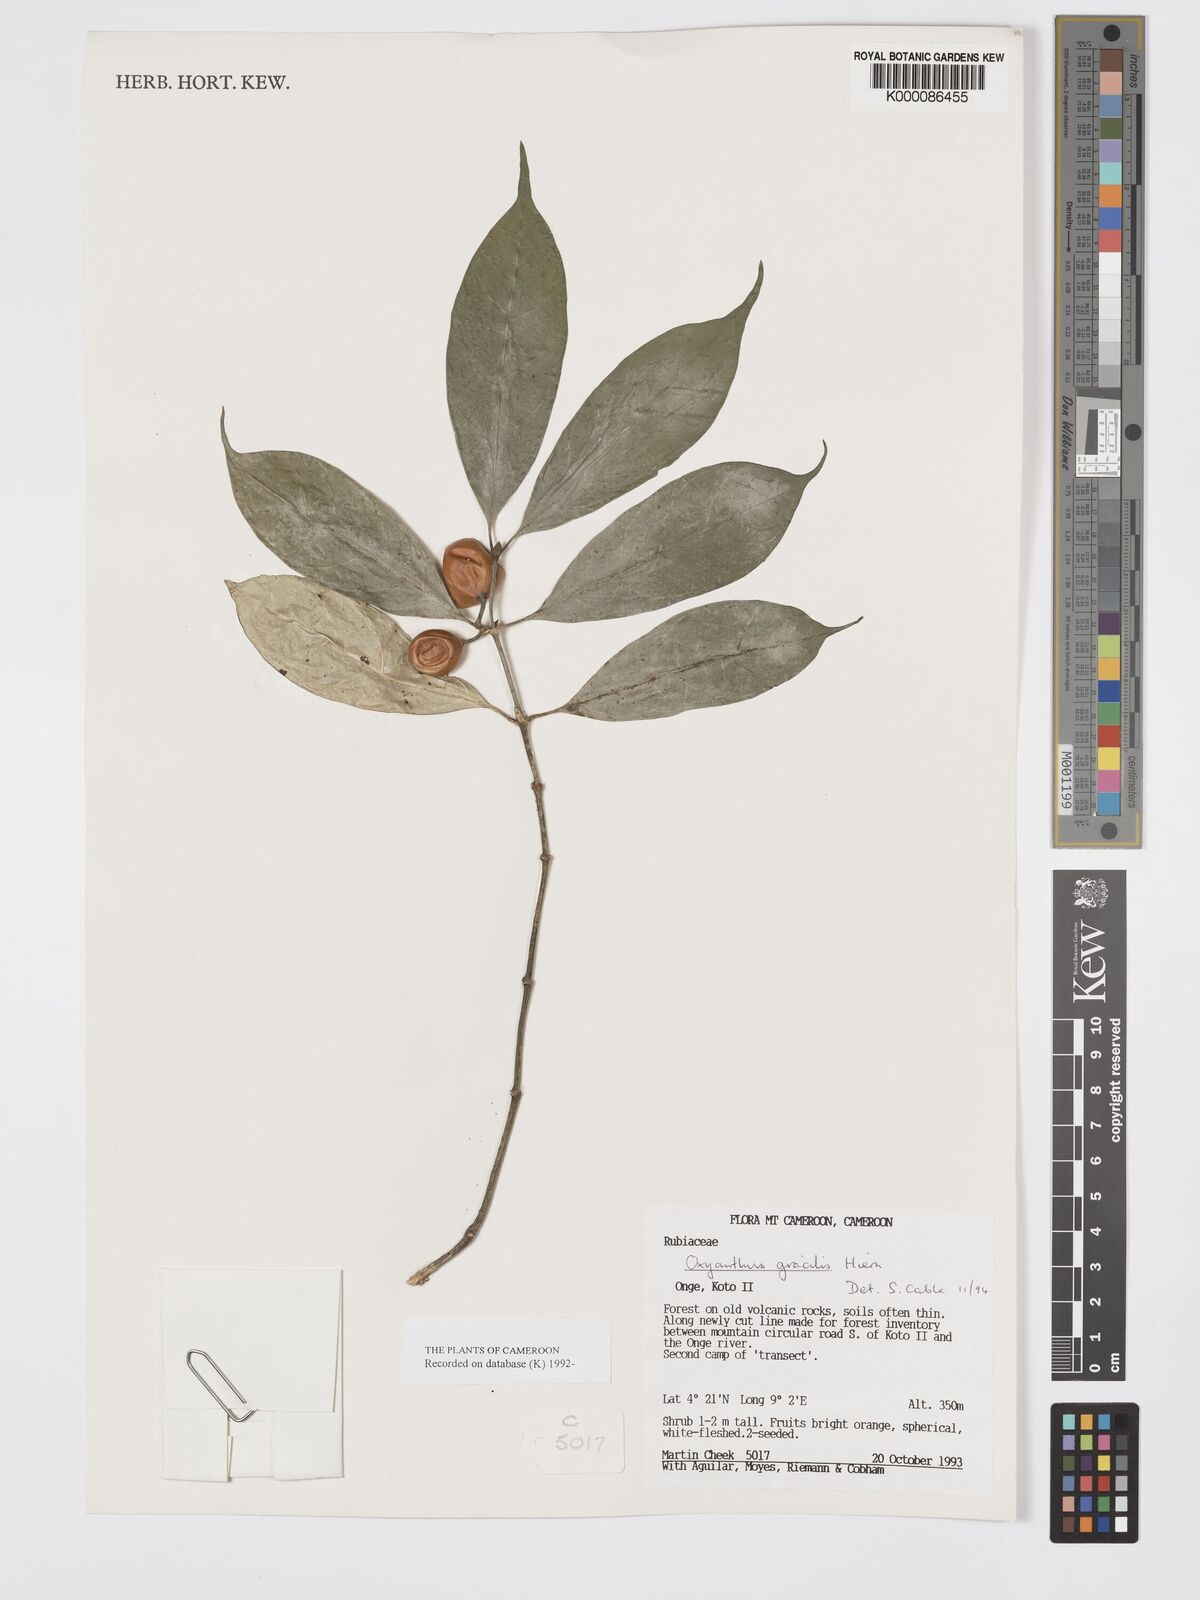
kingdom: Plantae
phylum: Tracheophyta
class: Magnoliopsida
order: Gentianales
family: Rubiaceae
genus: Oxyanthus
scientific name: Oxyanthus gracilis
